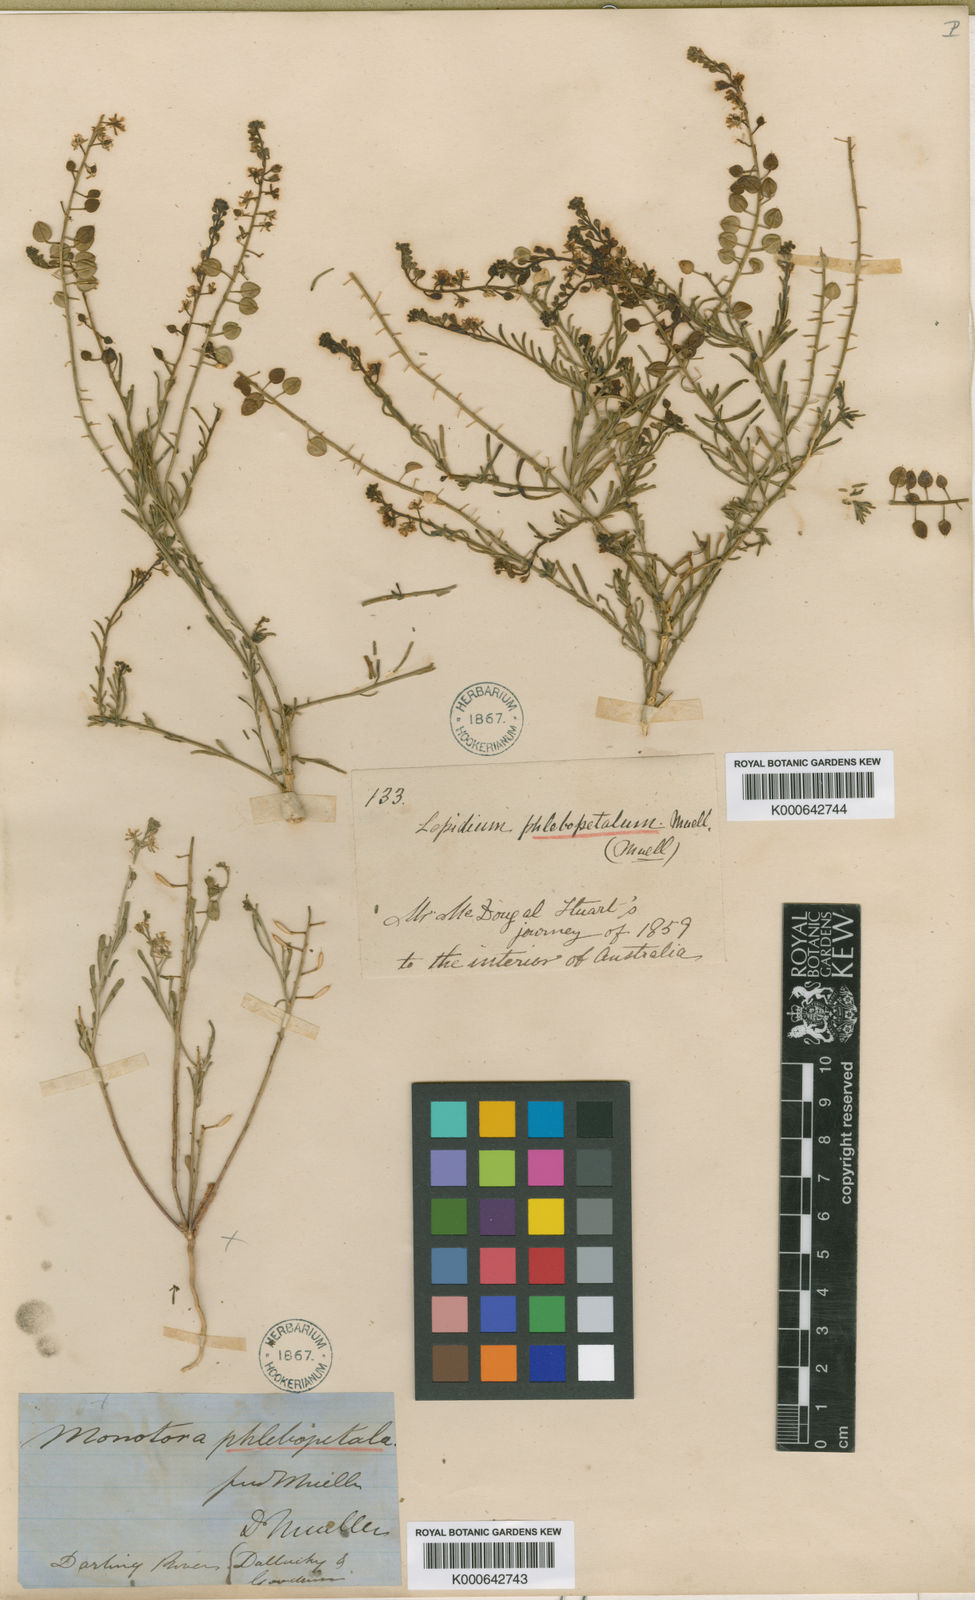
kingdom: Plantae
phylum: Tracheophyta
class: Magnoliopsida
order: Brassicales
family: Brassicaceae
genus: Lepidium
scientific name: Lepidium phlebopetalum
